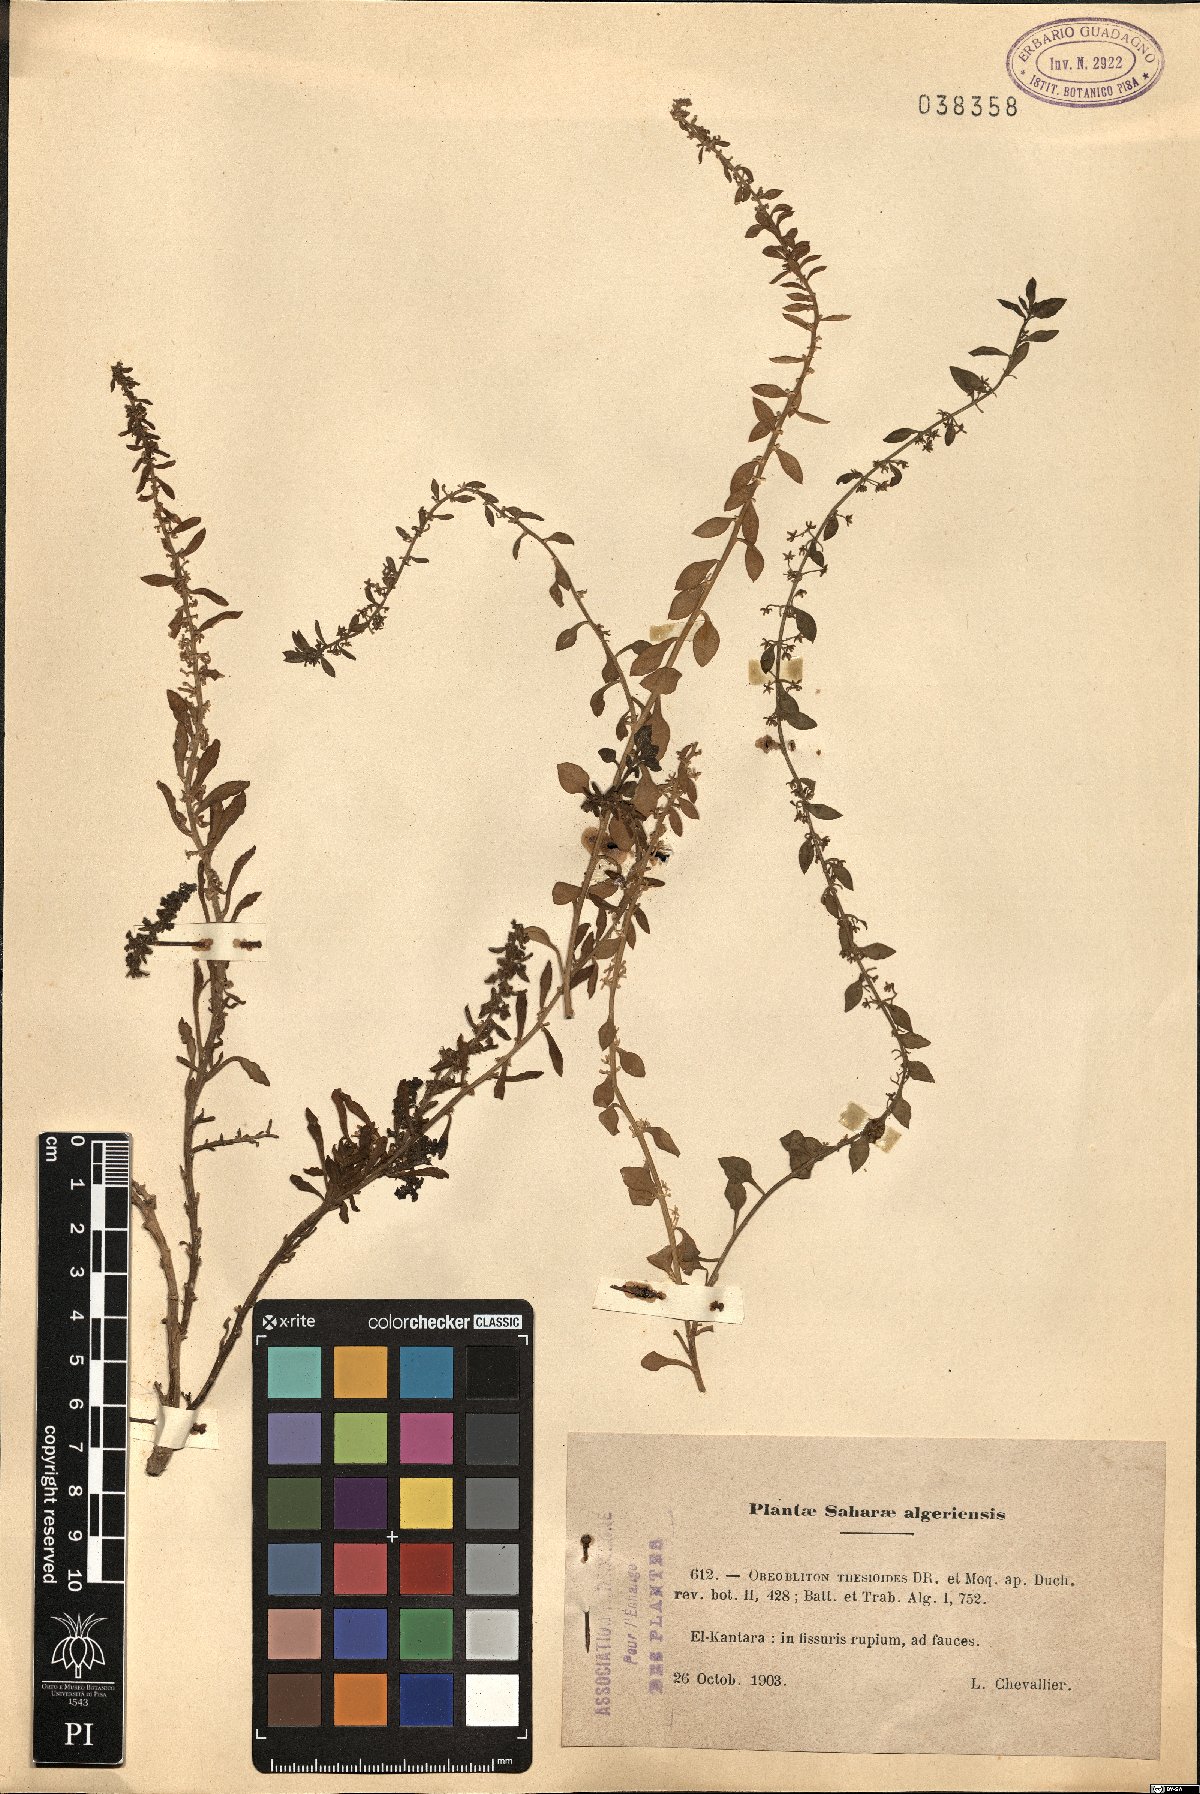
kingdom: Plantae
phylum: Tracheophyta
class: Magnoliopsida
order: Caryophyllales
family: Amaranthaceae
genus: Oreobliton
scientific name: Oreobliton thesioides
